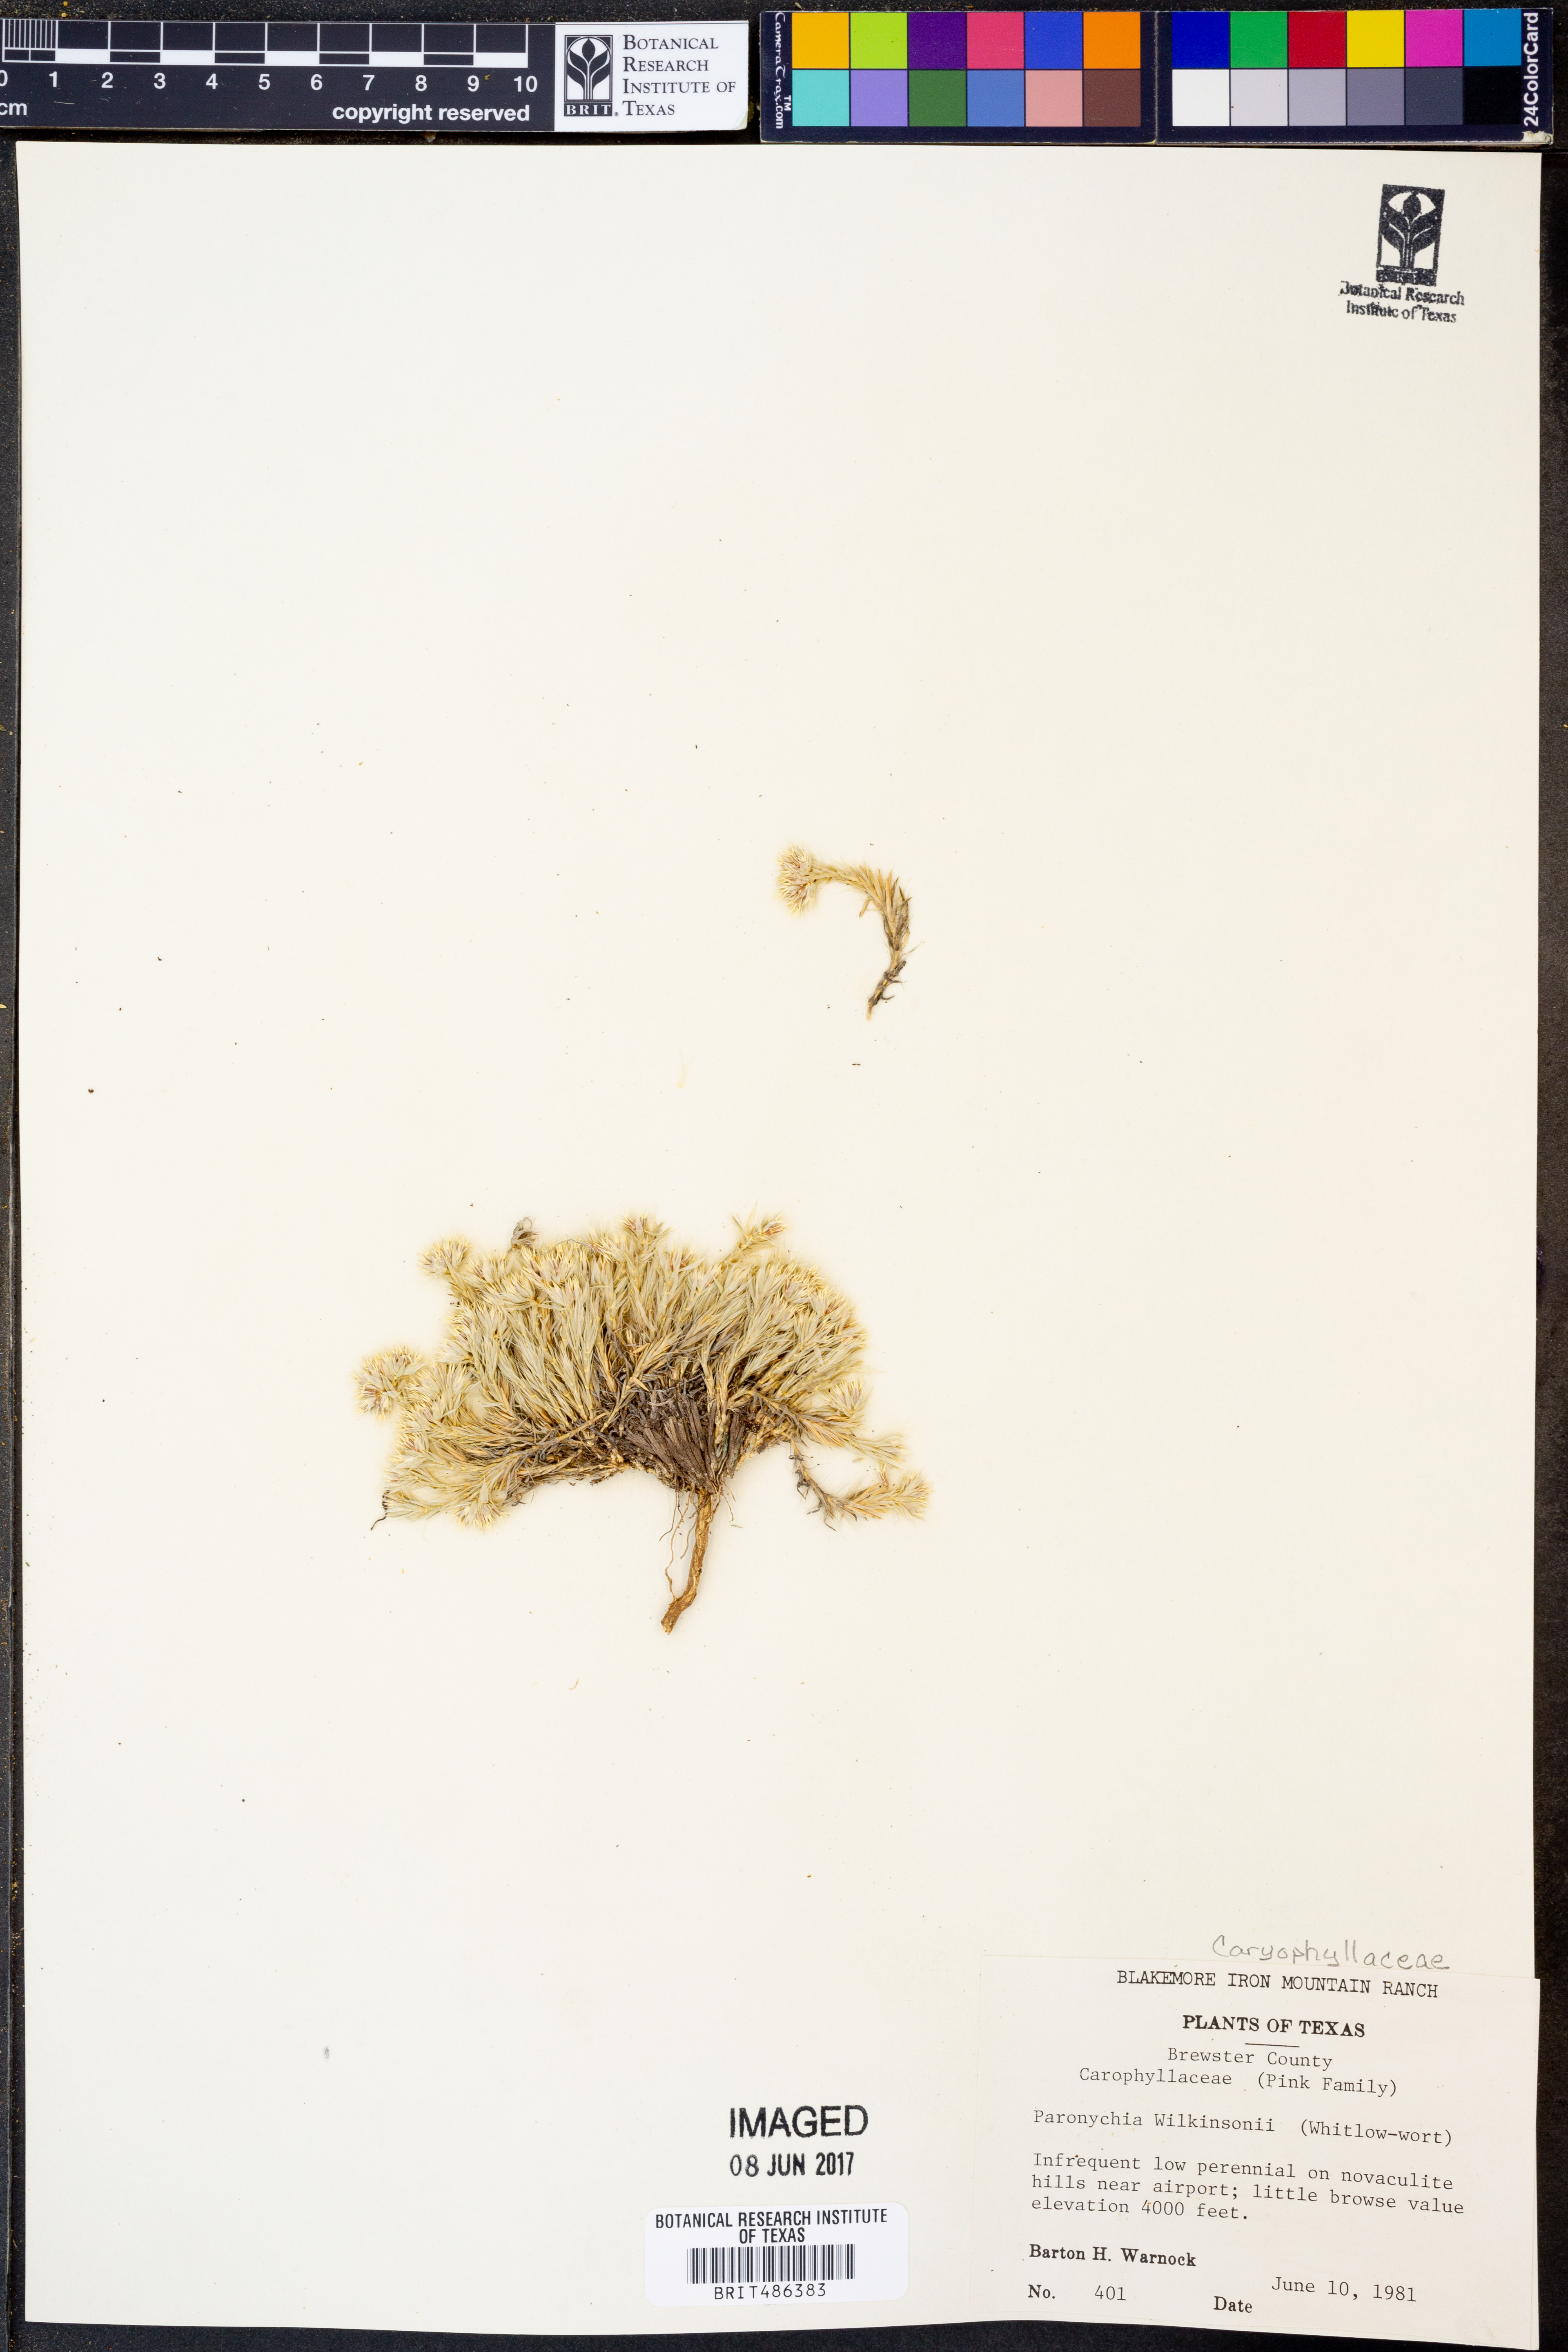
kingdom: Plantae
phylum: Tracheophyta
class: Magnoliopsida
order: Caryophyllales
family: Caryophyllaceae
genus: Paronychia
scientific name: Paronychia wilkinsonii
